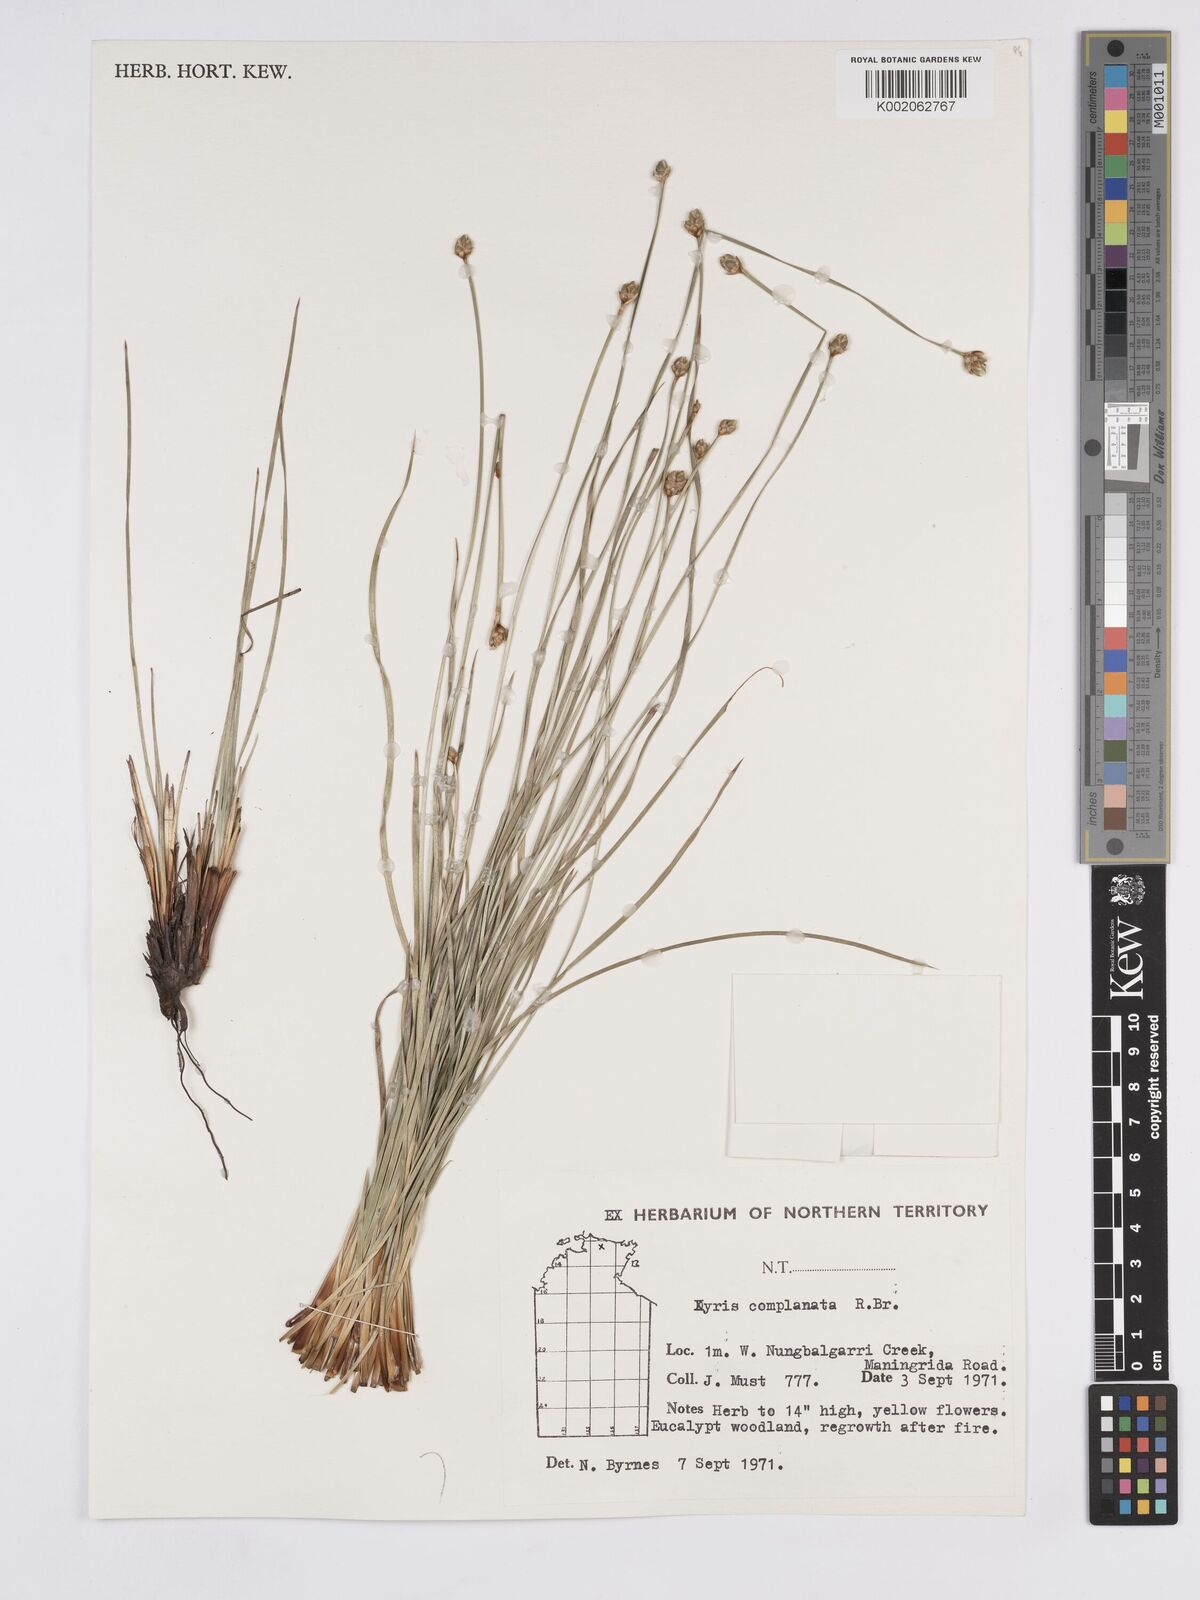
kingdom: Plantae
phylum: Tracheophyta
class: Liliopsida
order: Poales
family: Xyridaceae
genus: Xyris
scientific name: Xyris complanata
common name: Hawai'i yelloweyed grass
